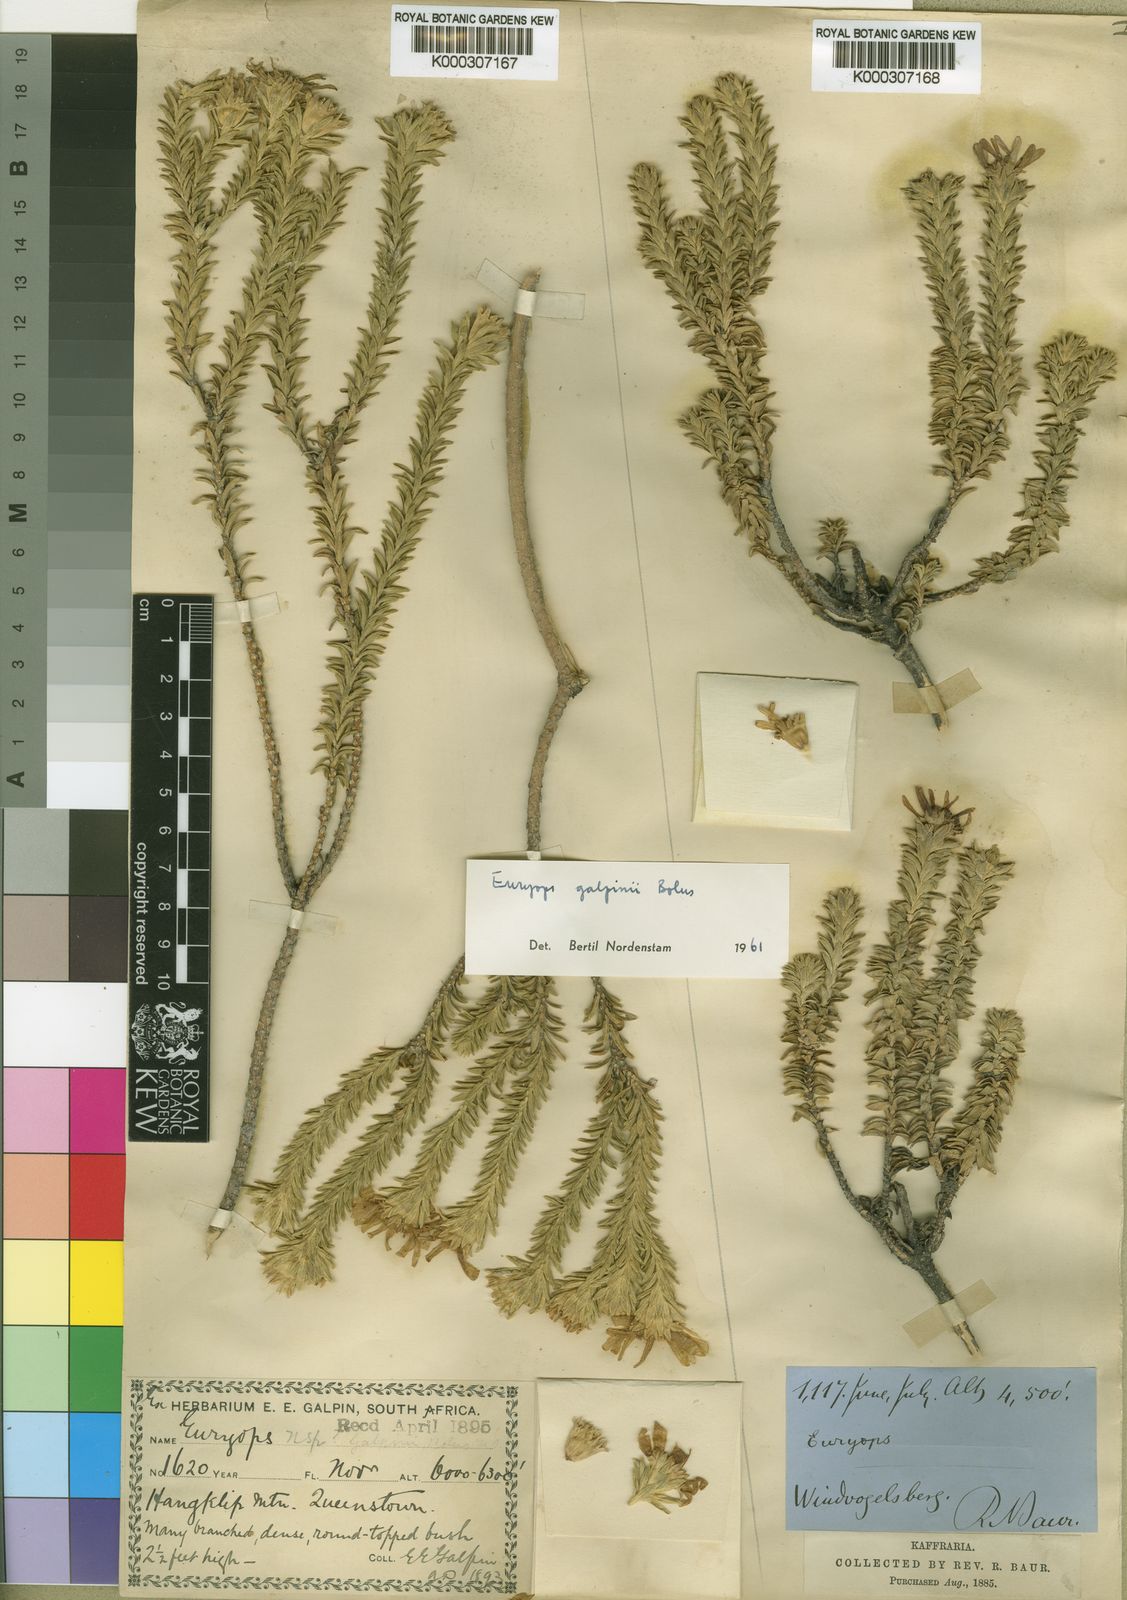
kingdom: Plantae
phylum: Tracheophyta
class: Magnoliopsida
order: Asterales
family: Asteraceae
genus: Euryops
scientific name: Euryops galpinii
